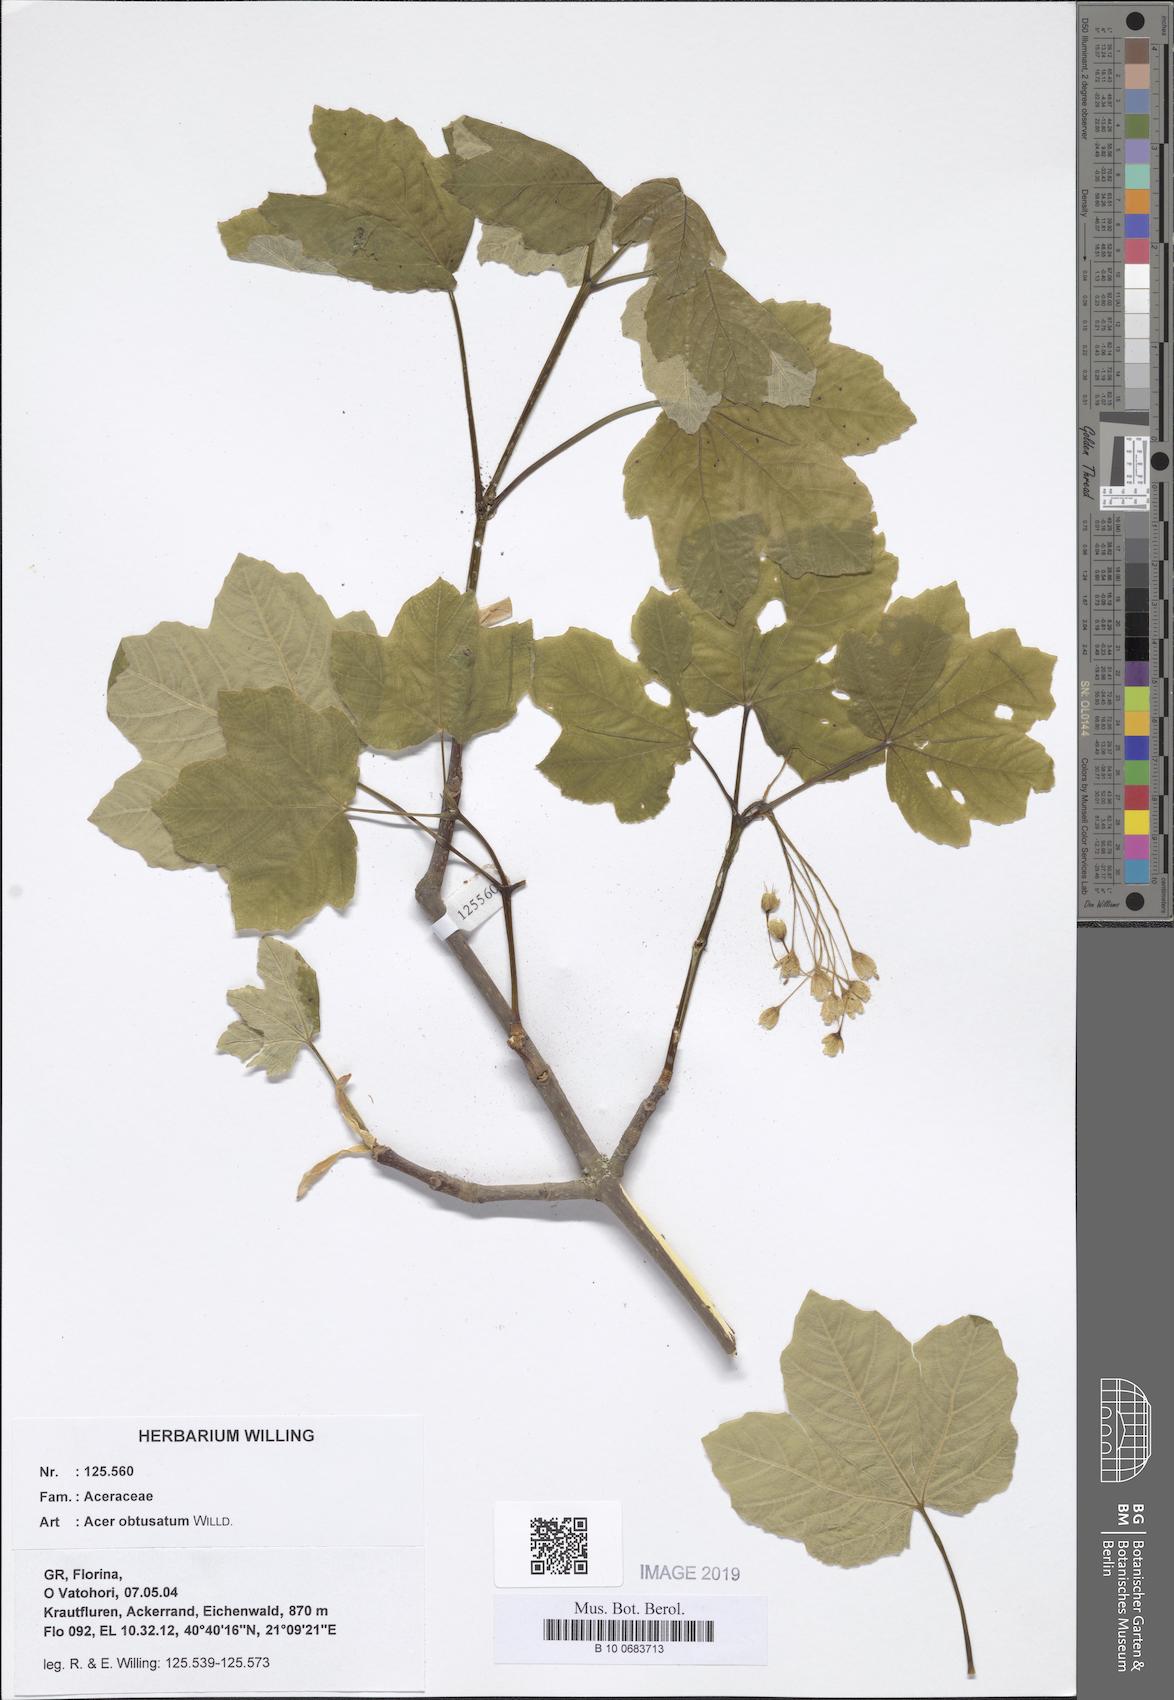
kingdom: Plantae
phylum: Tracheophyta
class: Magnoliopsida
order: Sapindales
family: Sapindaceae
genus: Acer
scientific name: Acer obtusatum
